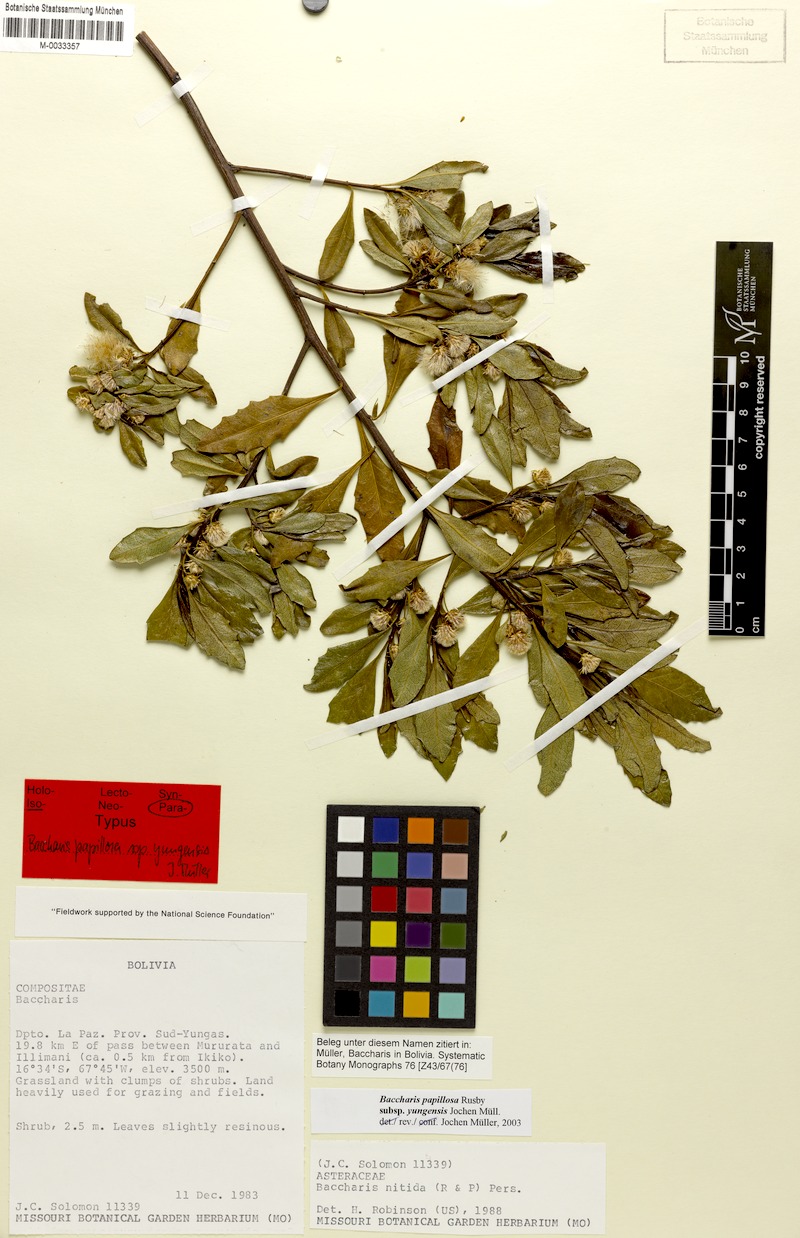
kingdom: Plantae
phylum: Tracheophyta
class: Magnoliopsida
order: Asterales
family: Asteraceae
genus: Baccharis
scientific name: Baccharis yungensis
